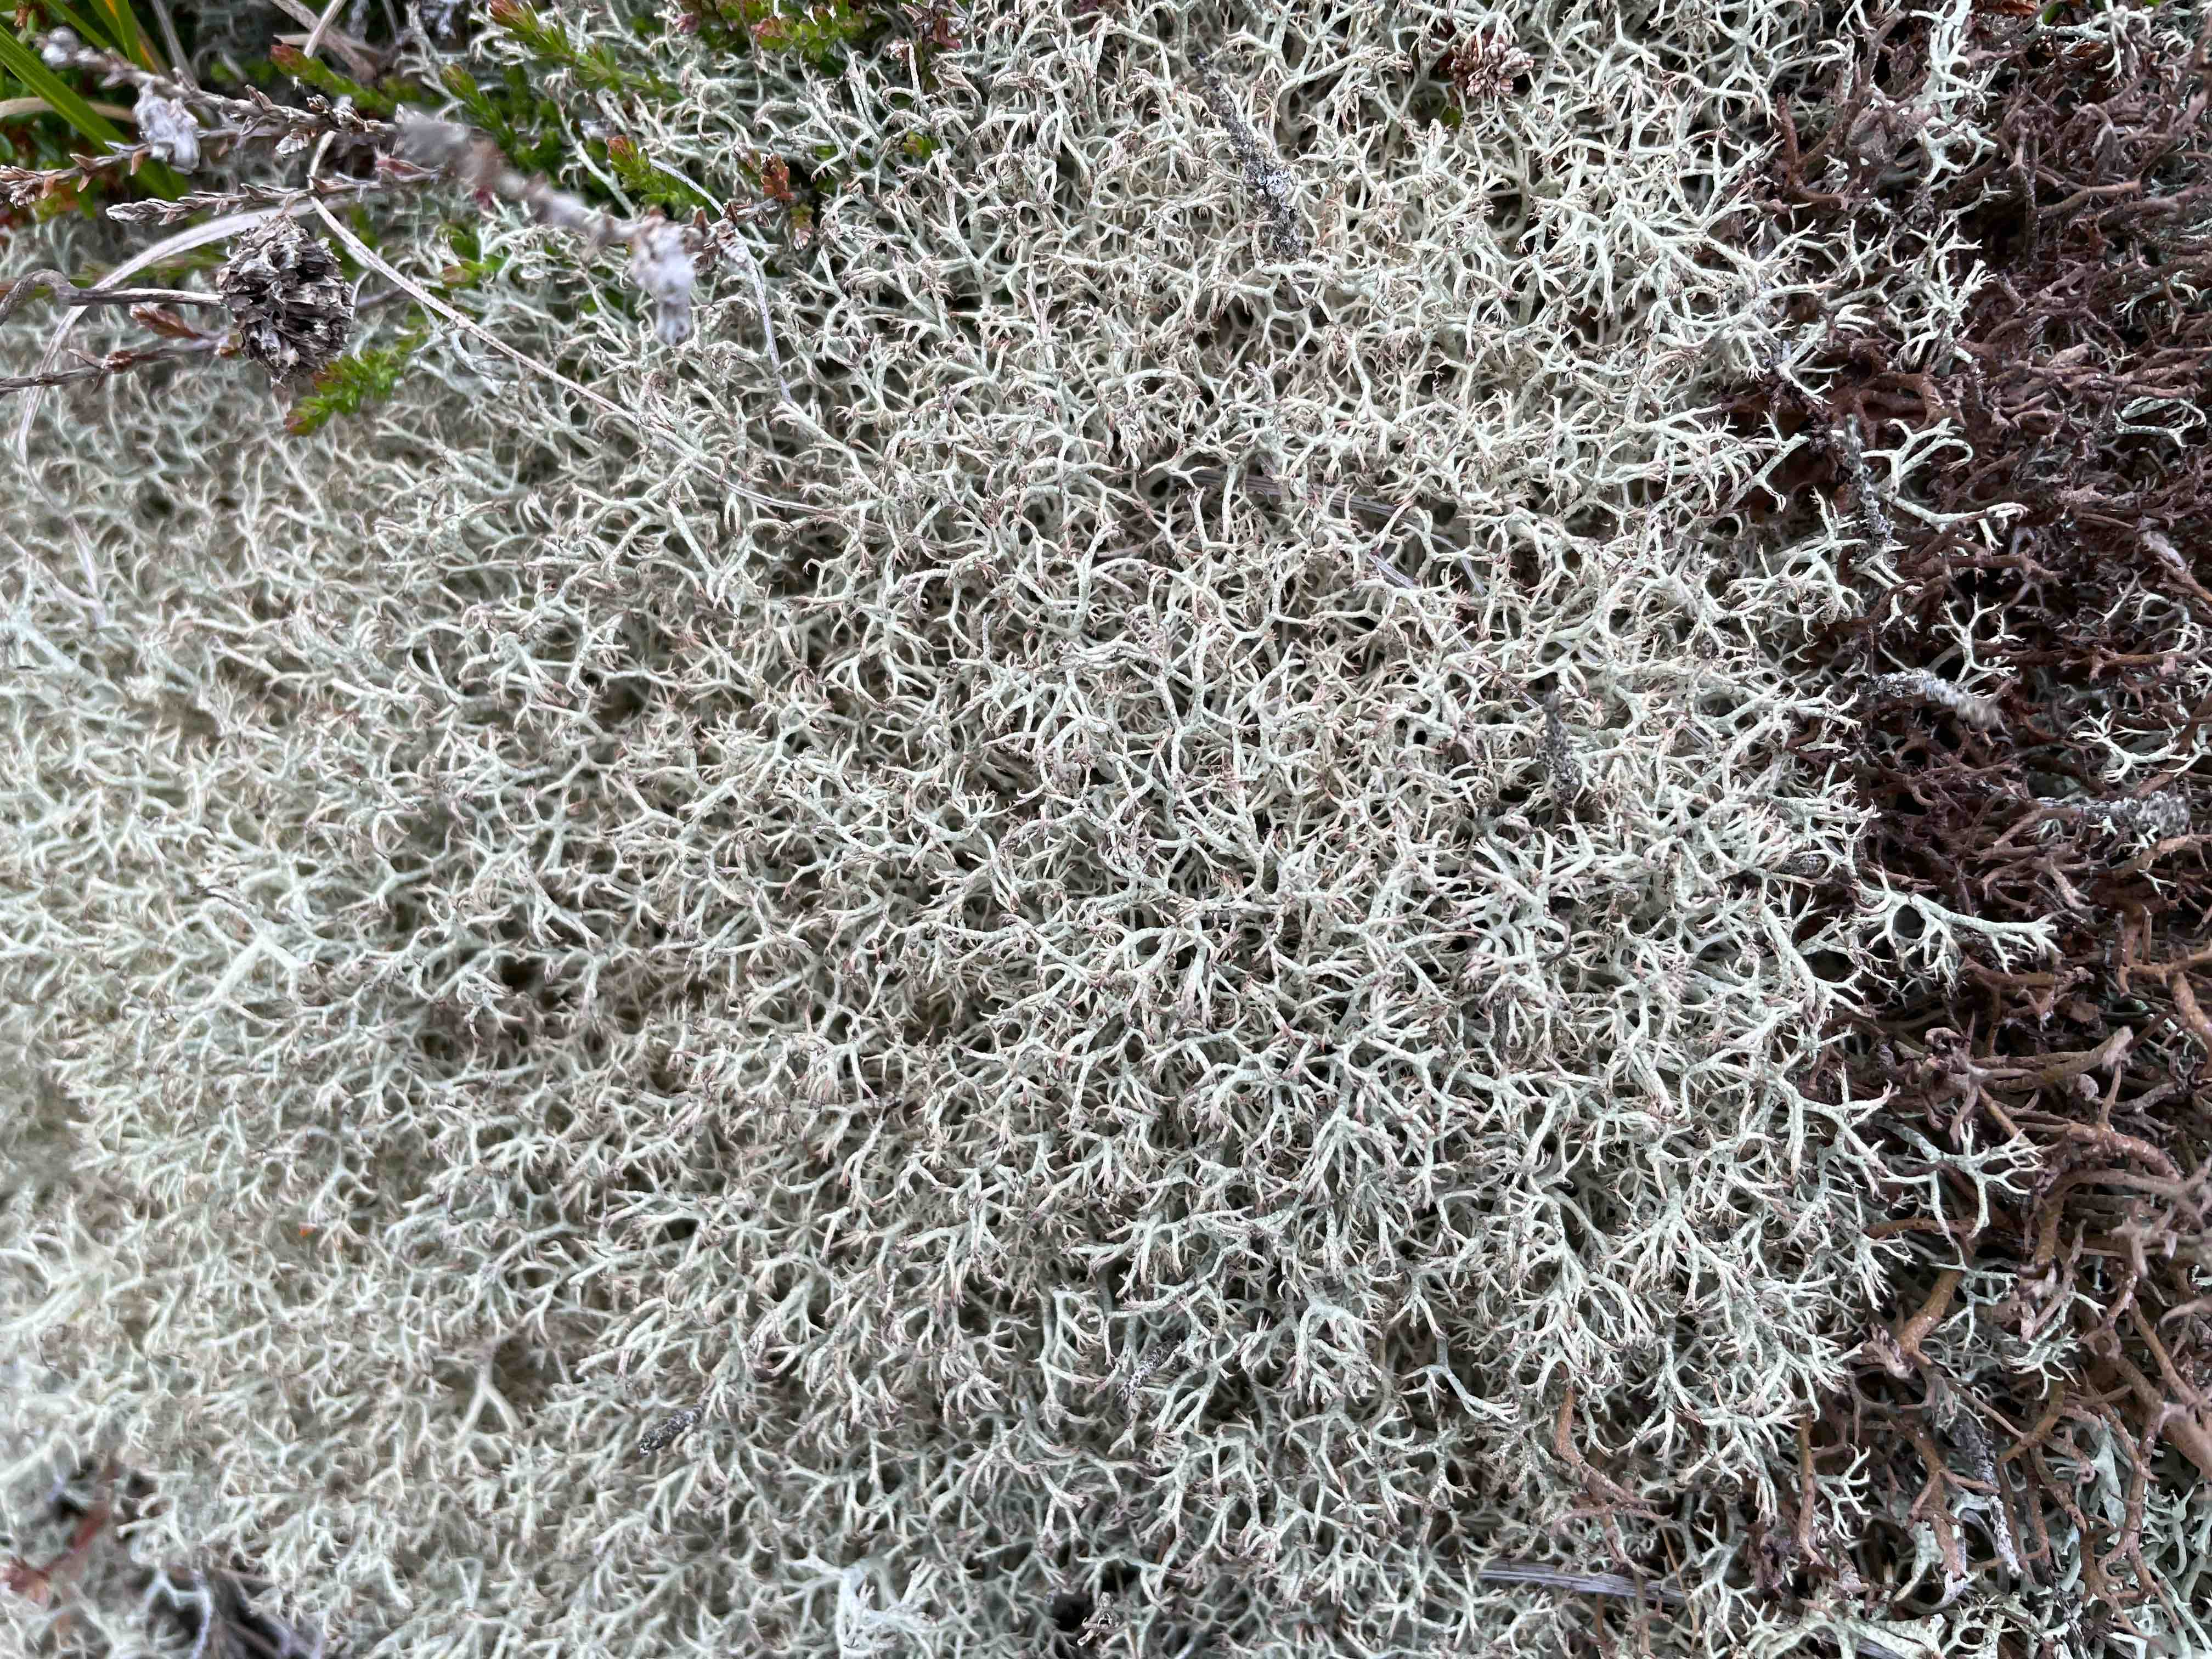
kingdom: Fungi
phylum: Ascomycota
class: Lecanoromycetes
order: Lecanorales
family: Cladoniaceae
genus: Cladonia
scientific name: Cladonia rangiformis
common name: spættet bægerlav
